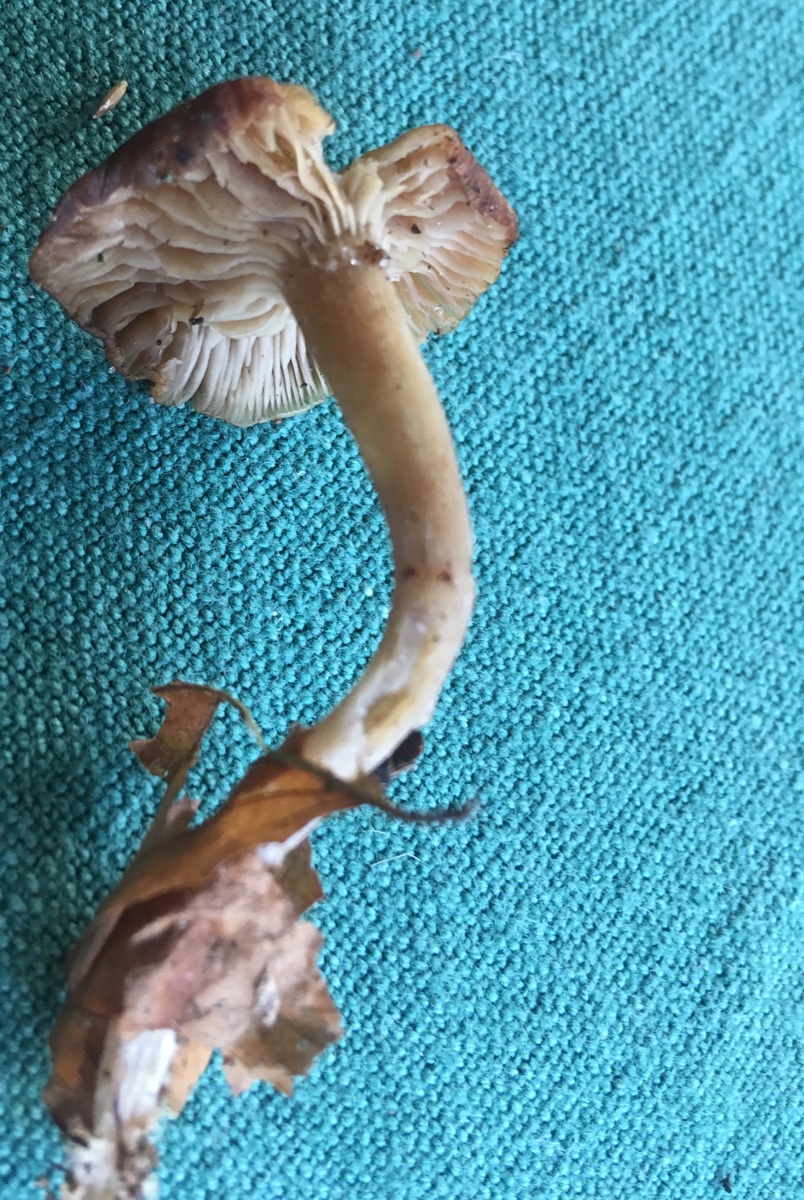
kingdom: Fungi
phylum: Basidiomycota
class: Agaricomycetes
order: Agaricales
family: Callistosporiaceae
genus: Pseudolaccaria
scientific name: Pseudolaccaria pachyphylla
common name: hvælvet tykblad
